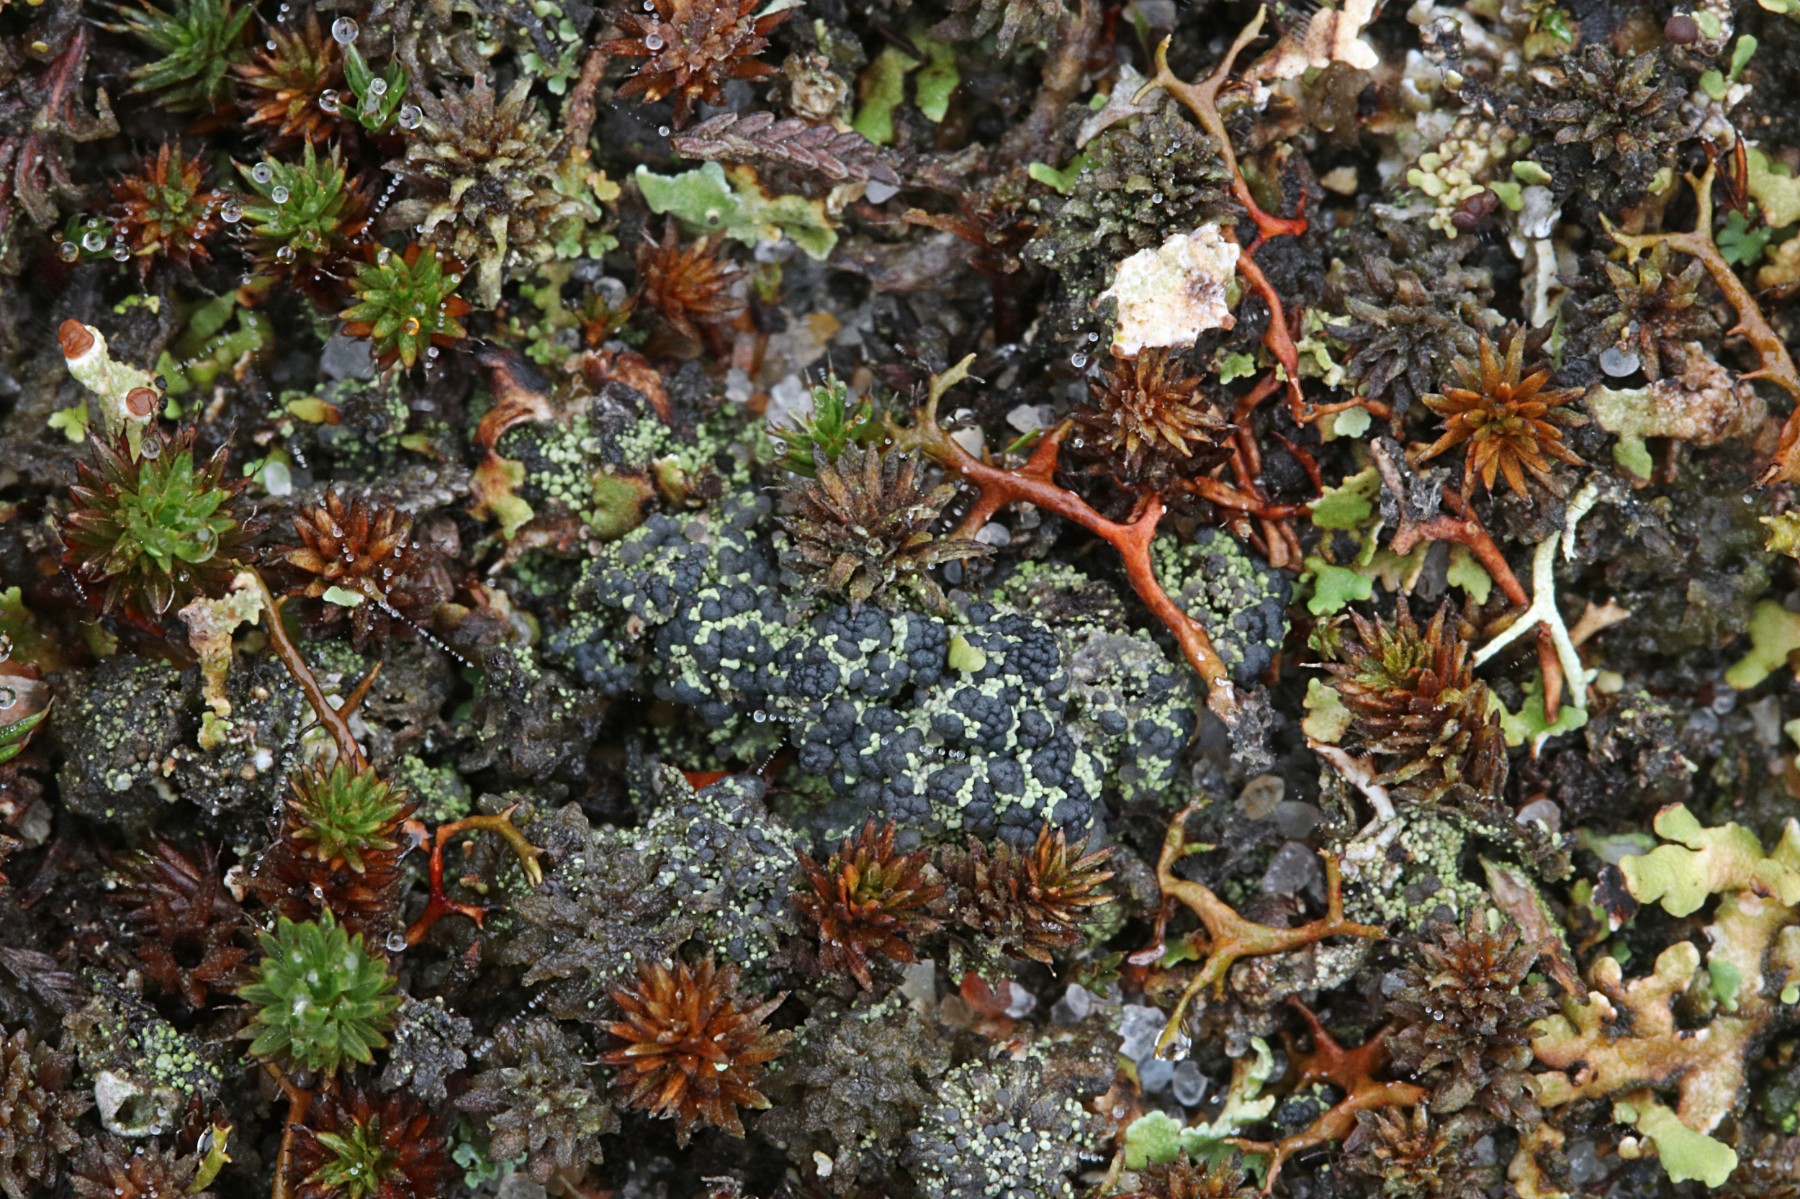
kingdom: Fungi
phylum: Ascomycota
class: Lecanoromycetes
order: Lecanorales
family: Byssolomataceae
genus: Micarea
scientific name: Micarea lignaria
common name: tørve-knaplav
